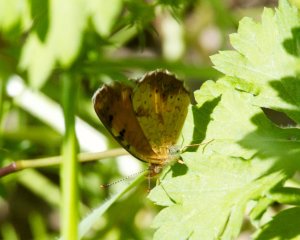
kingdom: Animalia
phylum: Arthropoda
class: Insecta
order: Lepidoptera
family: Nymphalidae
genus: Phyciodes
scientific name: Phyciodes tharos
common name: Northern Crescent
